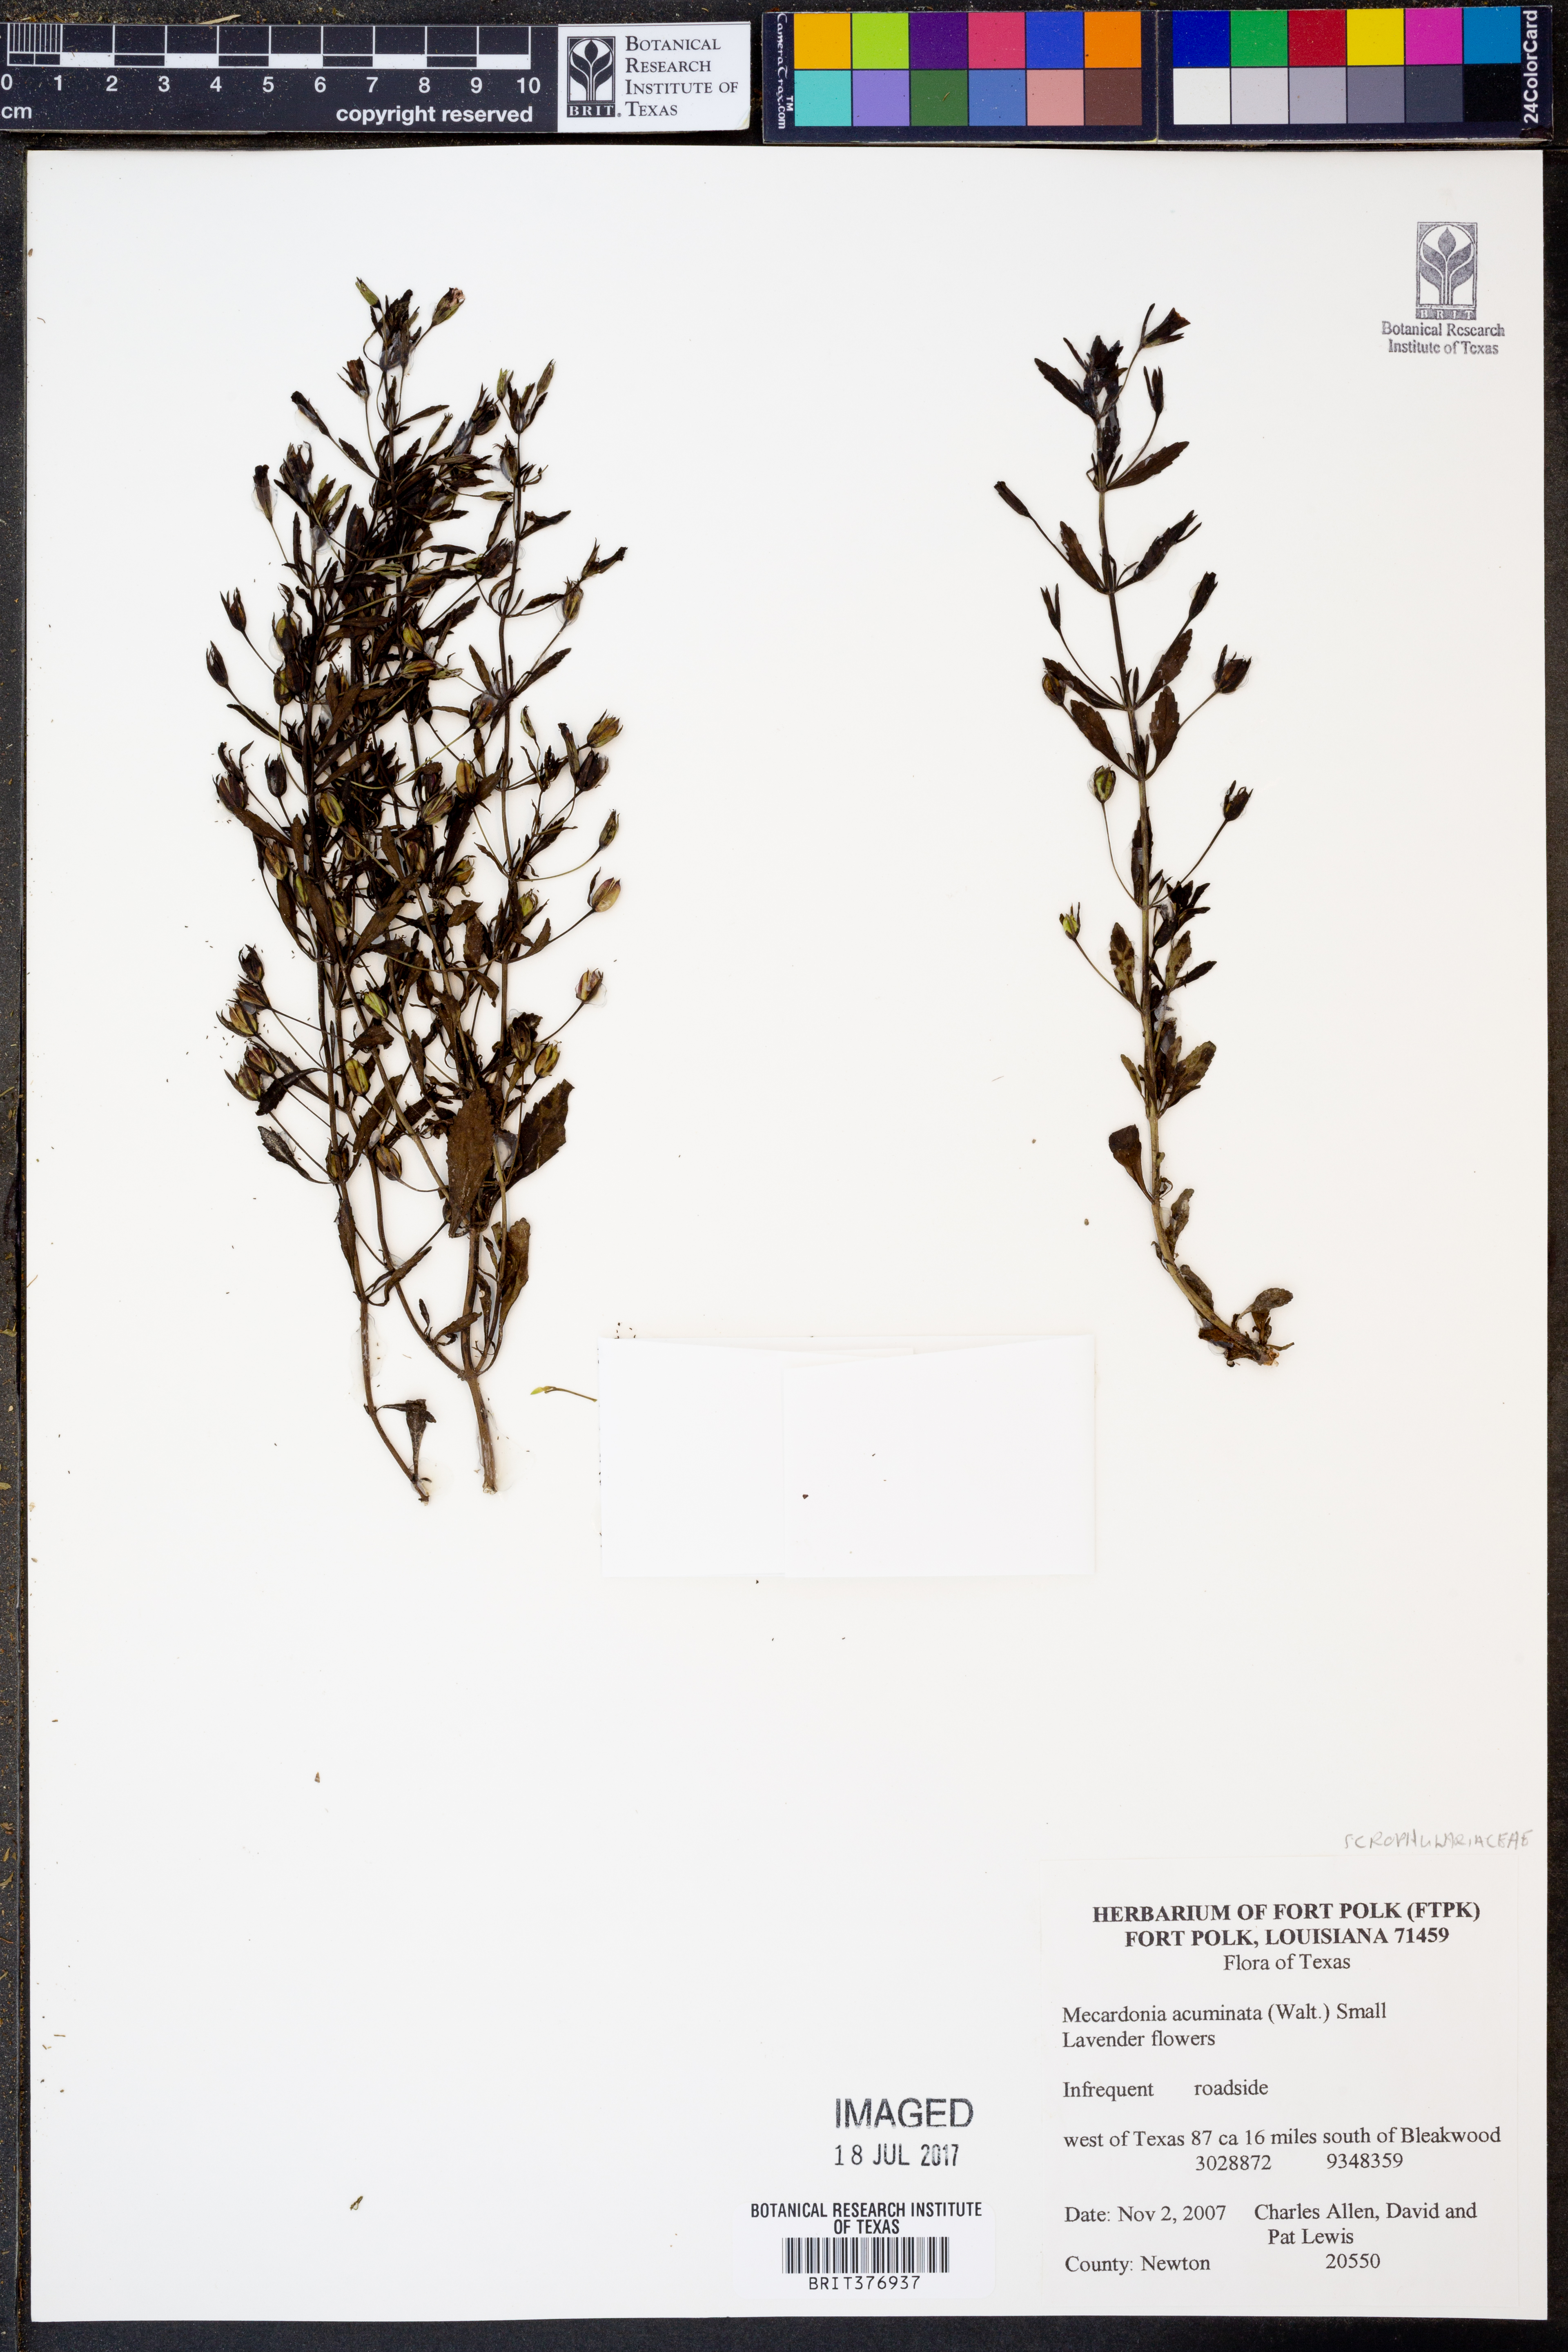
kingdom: Plantae
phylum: Tracheophyta
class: Magnoliopsida
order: Lamiales
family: Plantaginaceae
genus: Mecardonia
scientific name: Mecardonia acuminata
